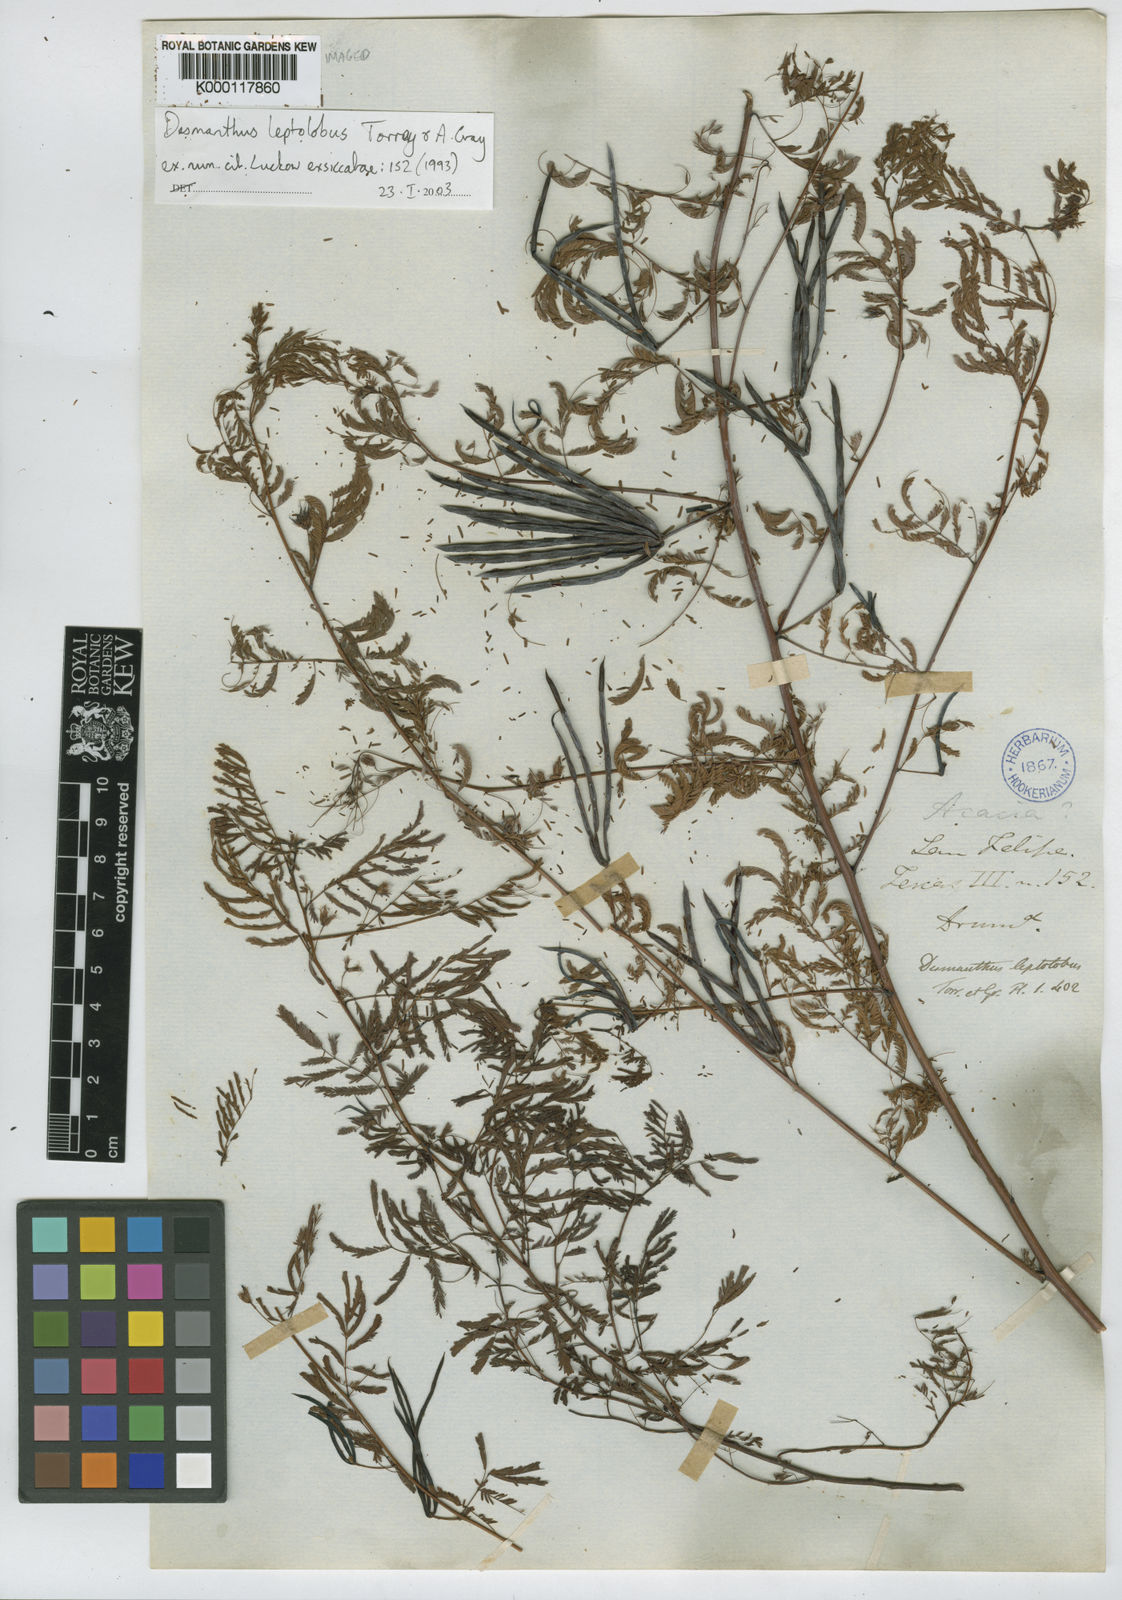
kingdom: Plantae
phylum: Tracheophyta
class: Magnoliopsida
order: Fabales
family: Fabaceae
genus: Desmanthus
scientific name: Desmanthus leptolobus
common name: Prairie-mimosa
